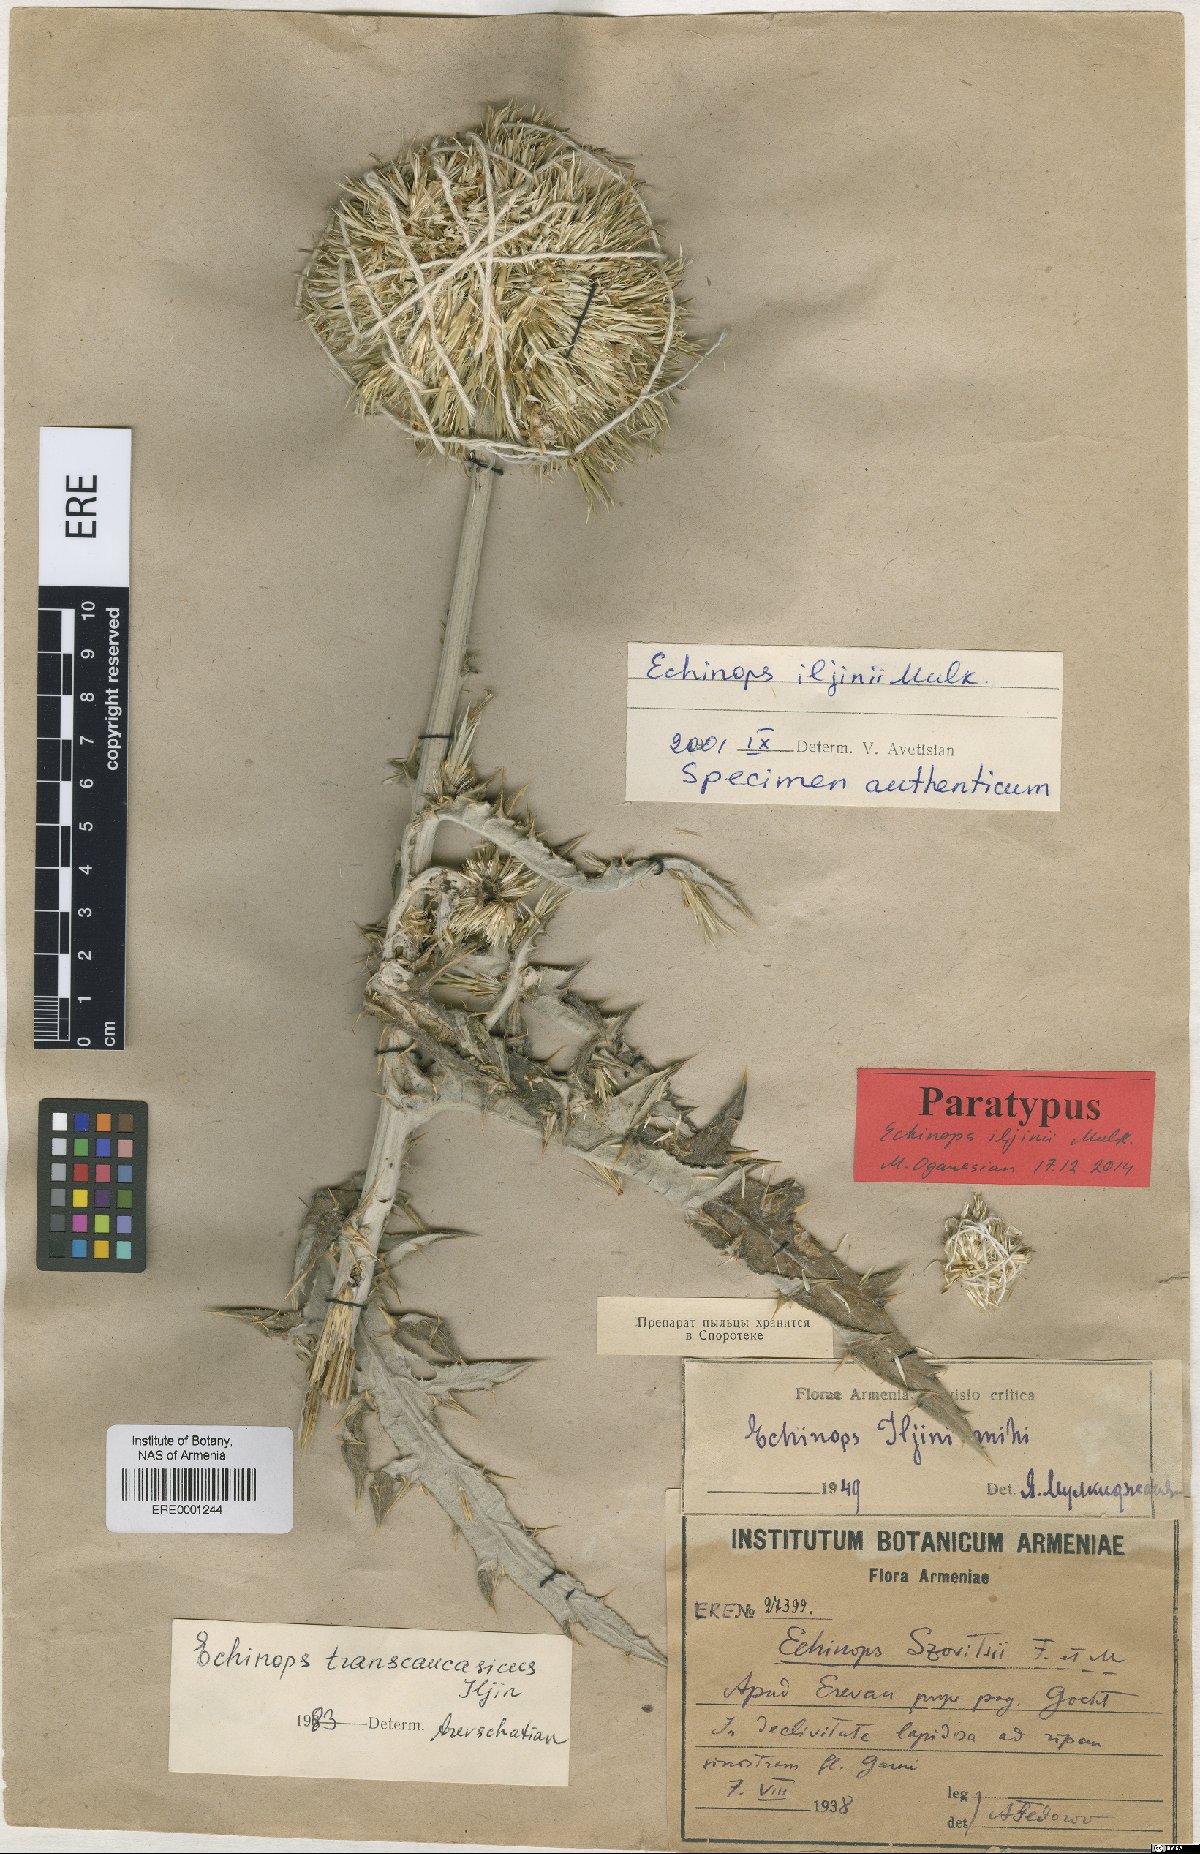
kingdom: Plantae
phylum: Tracheophyta
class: Magnoliopsida
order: Asterales
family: Asteraceae
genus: Echinops
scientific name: Echinops transcaucasicus
